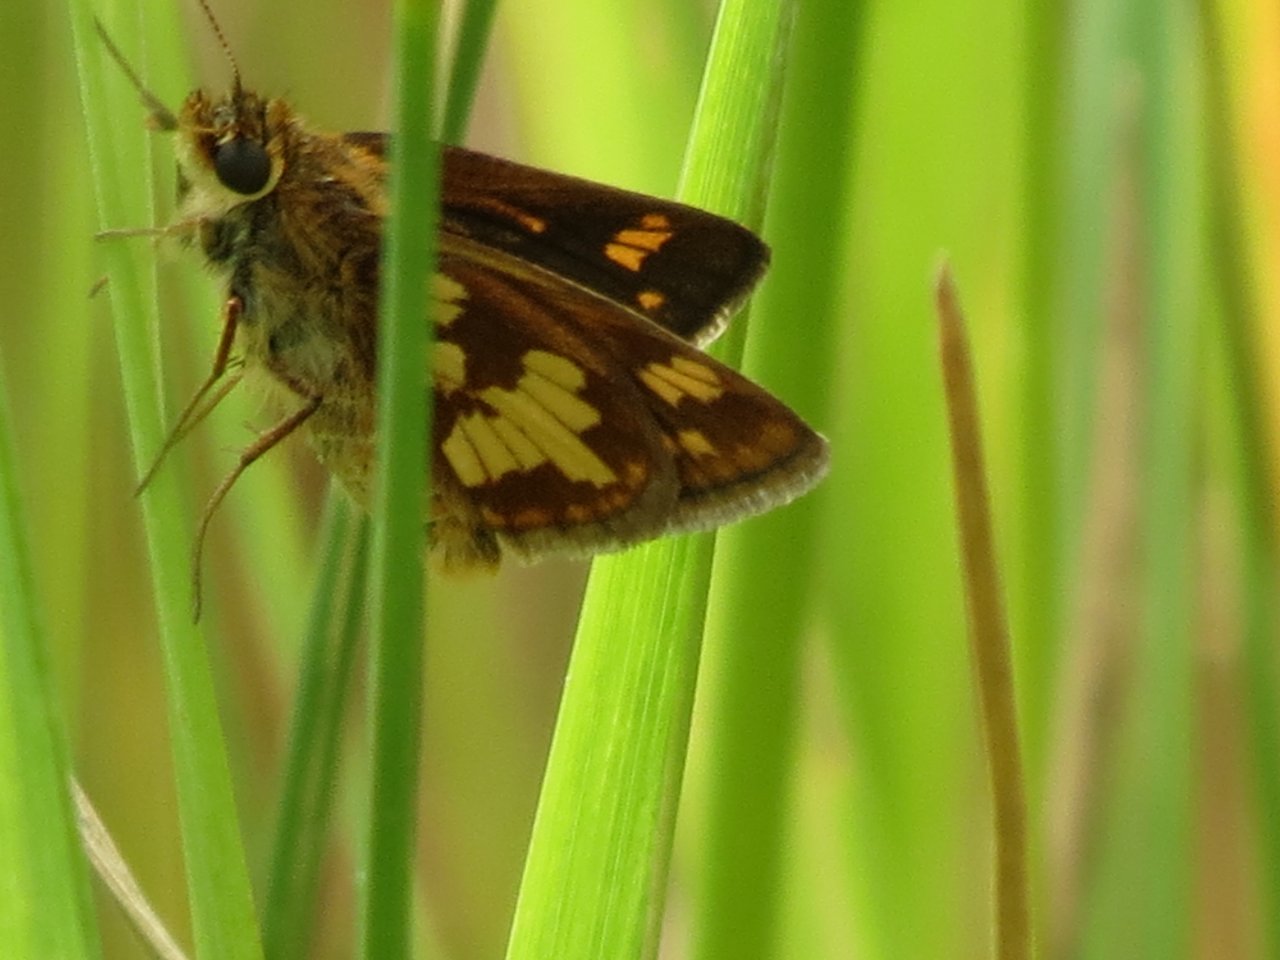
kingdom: Animalia
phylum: Arthropoda
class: Insecta
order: Lepidoptera
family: Hesperiidae
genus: Polites
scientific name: Polites coras
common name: Peck's Skipper
